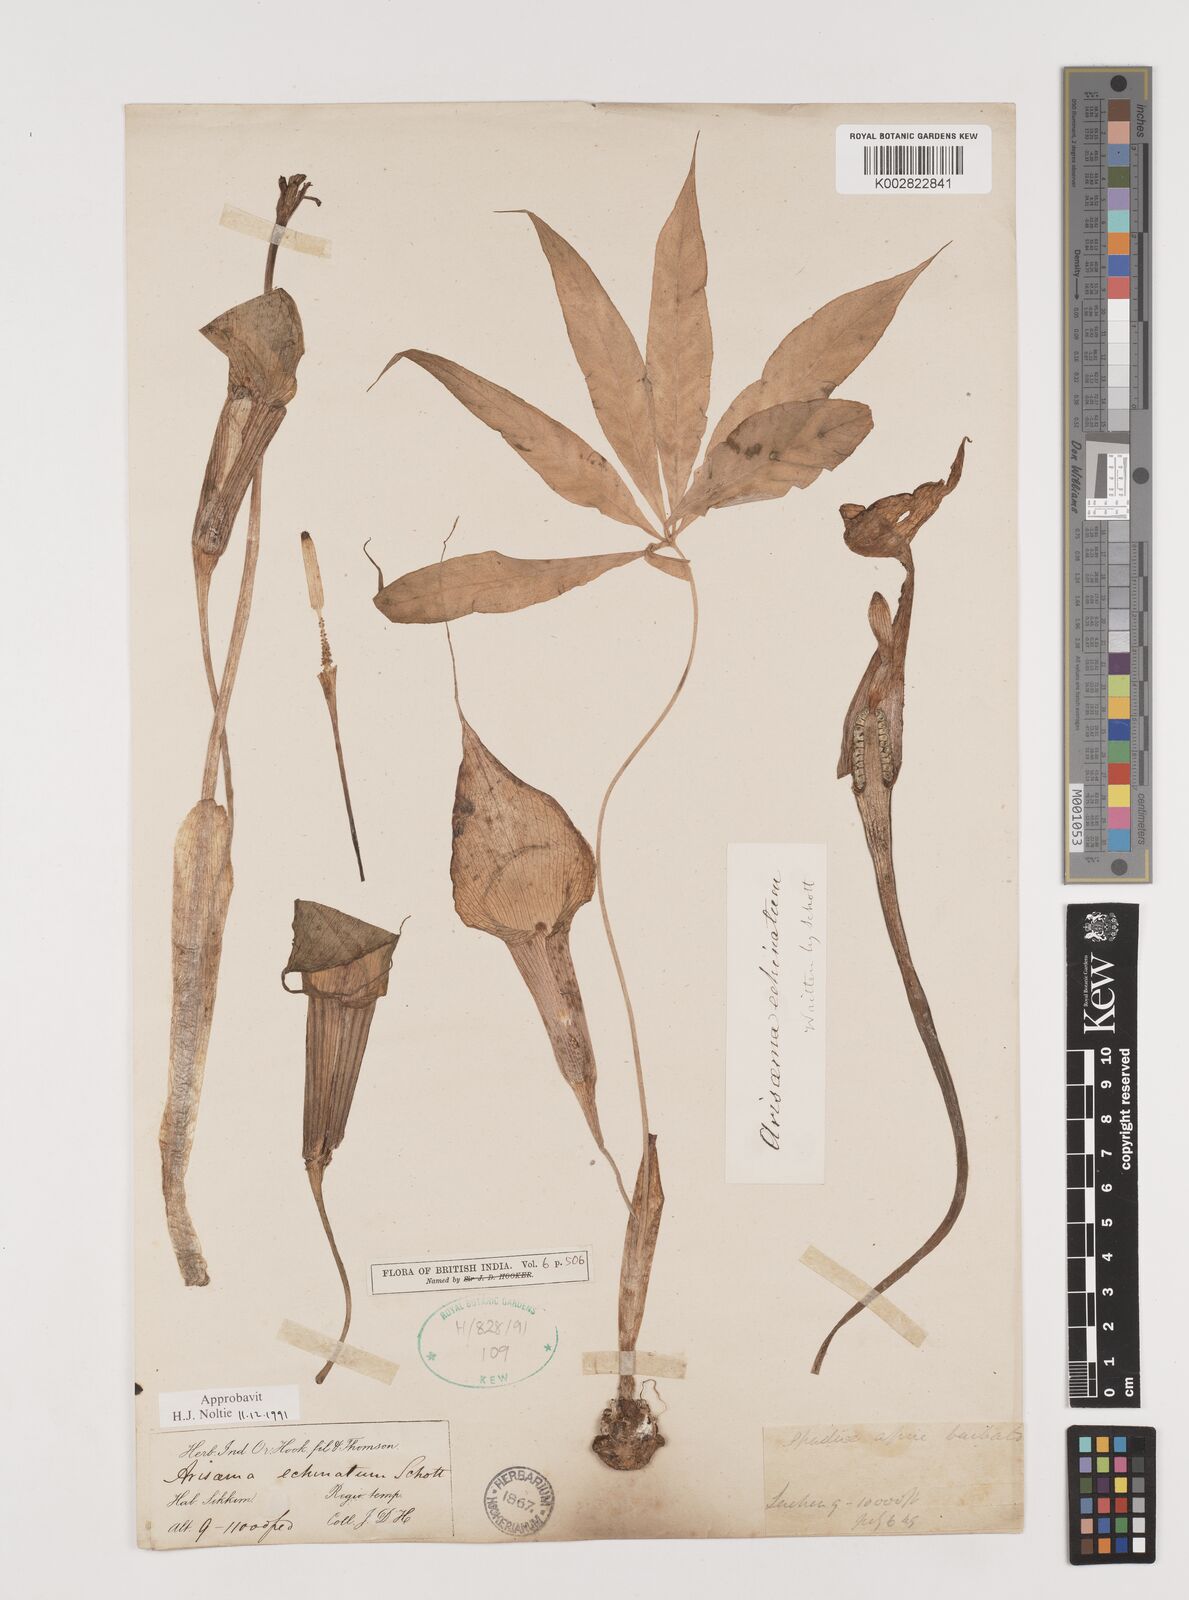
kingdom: Plantae
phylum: Tracheophyta
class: Liliopsida
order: Alismatales
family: Araceae
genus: Arisaema
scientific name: Arisaema echinatum
